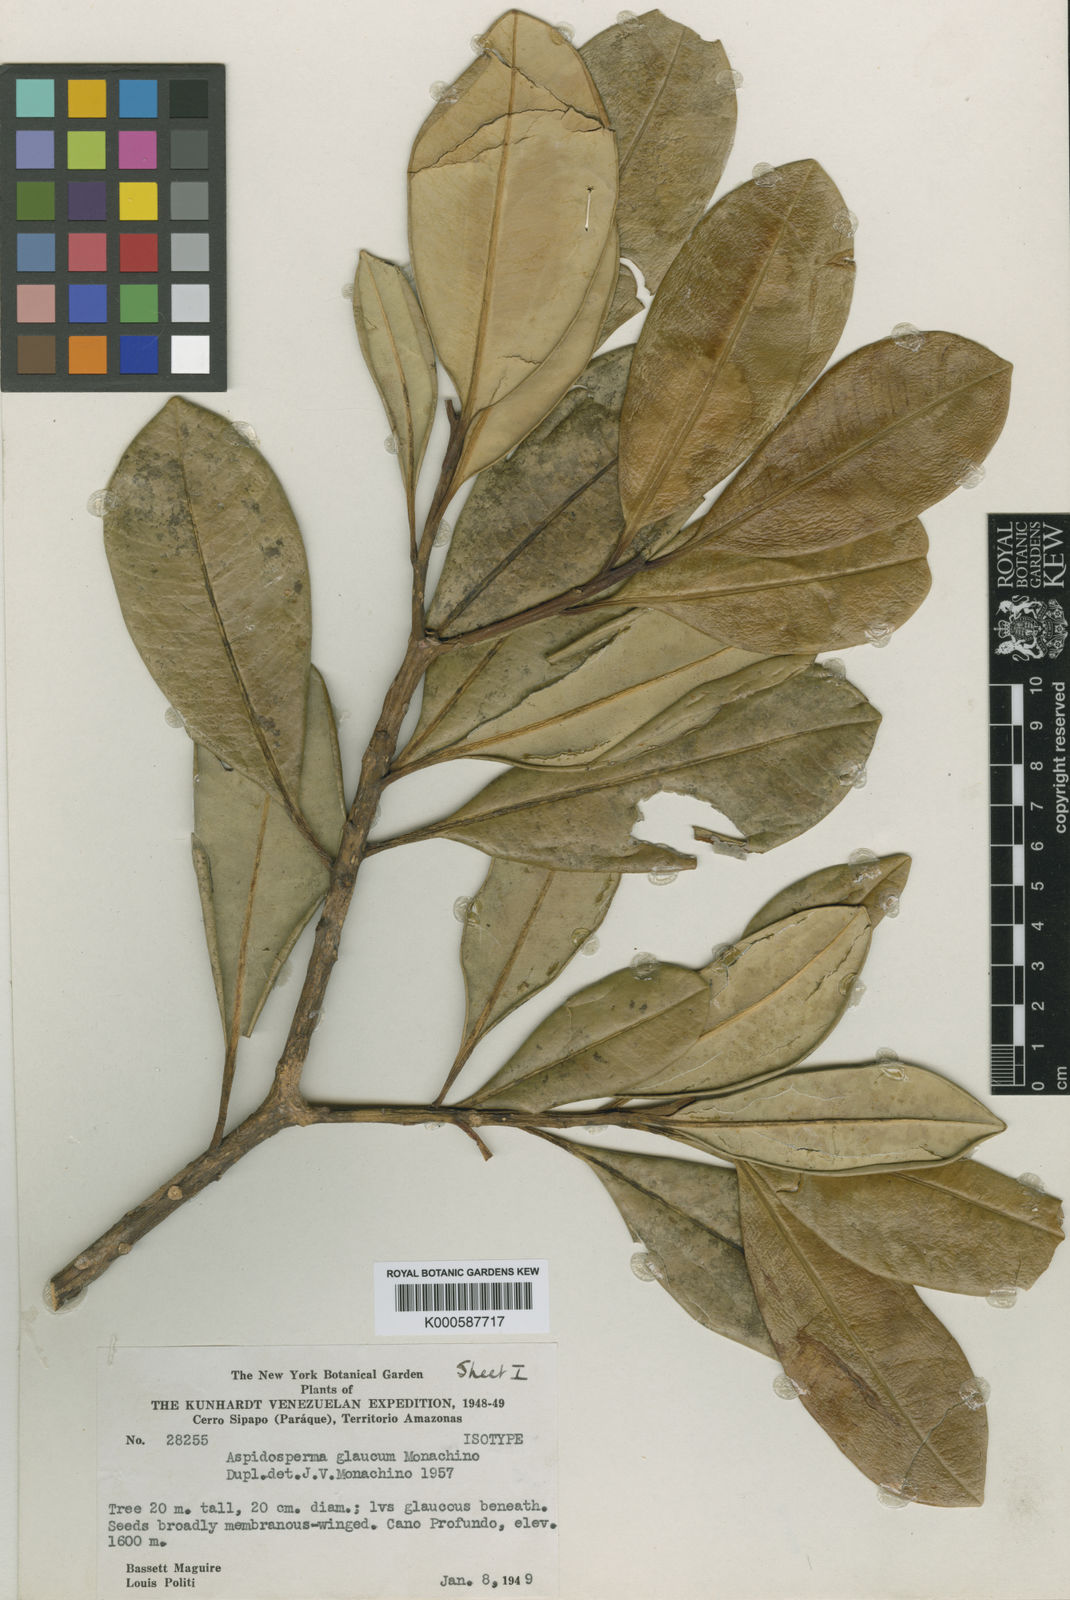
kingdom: Plantae
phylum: Tracheophyta
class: Magnoliopsida
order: Gentianales
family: Apocynaceae
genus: Aspidosperma
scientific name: Aspidosperma glaucum
